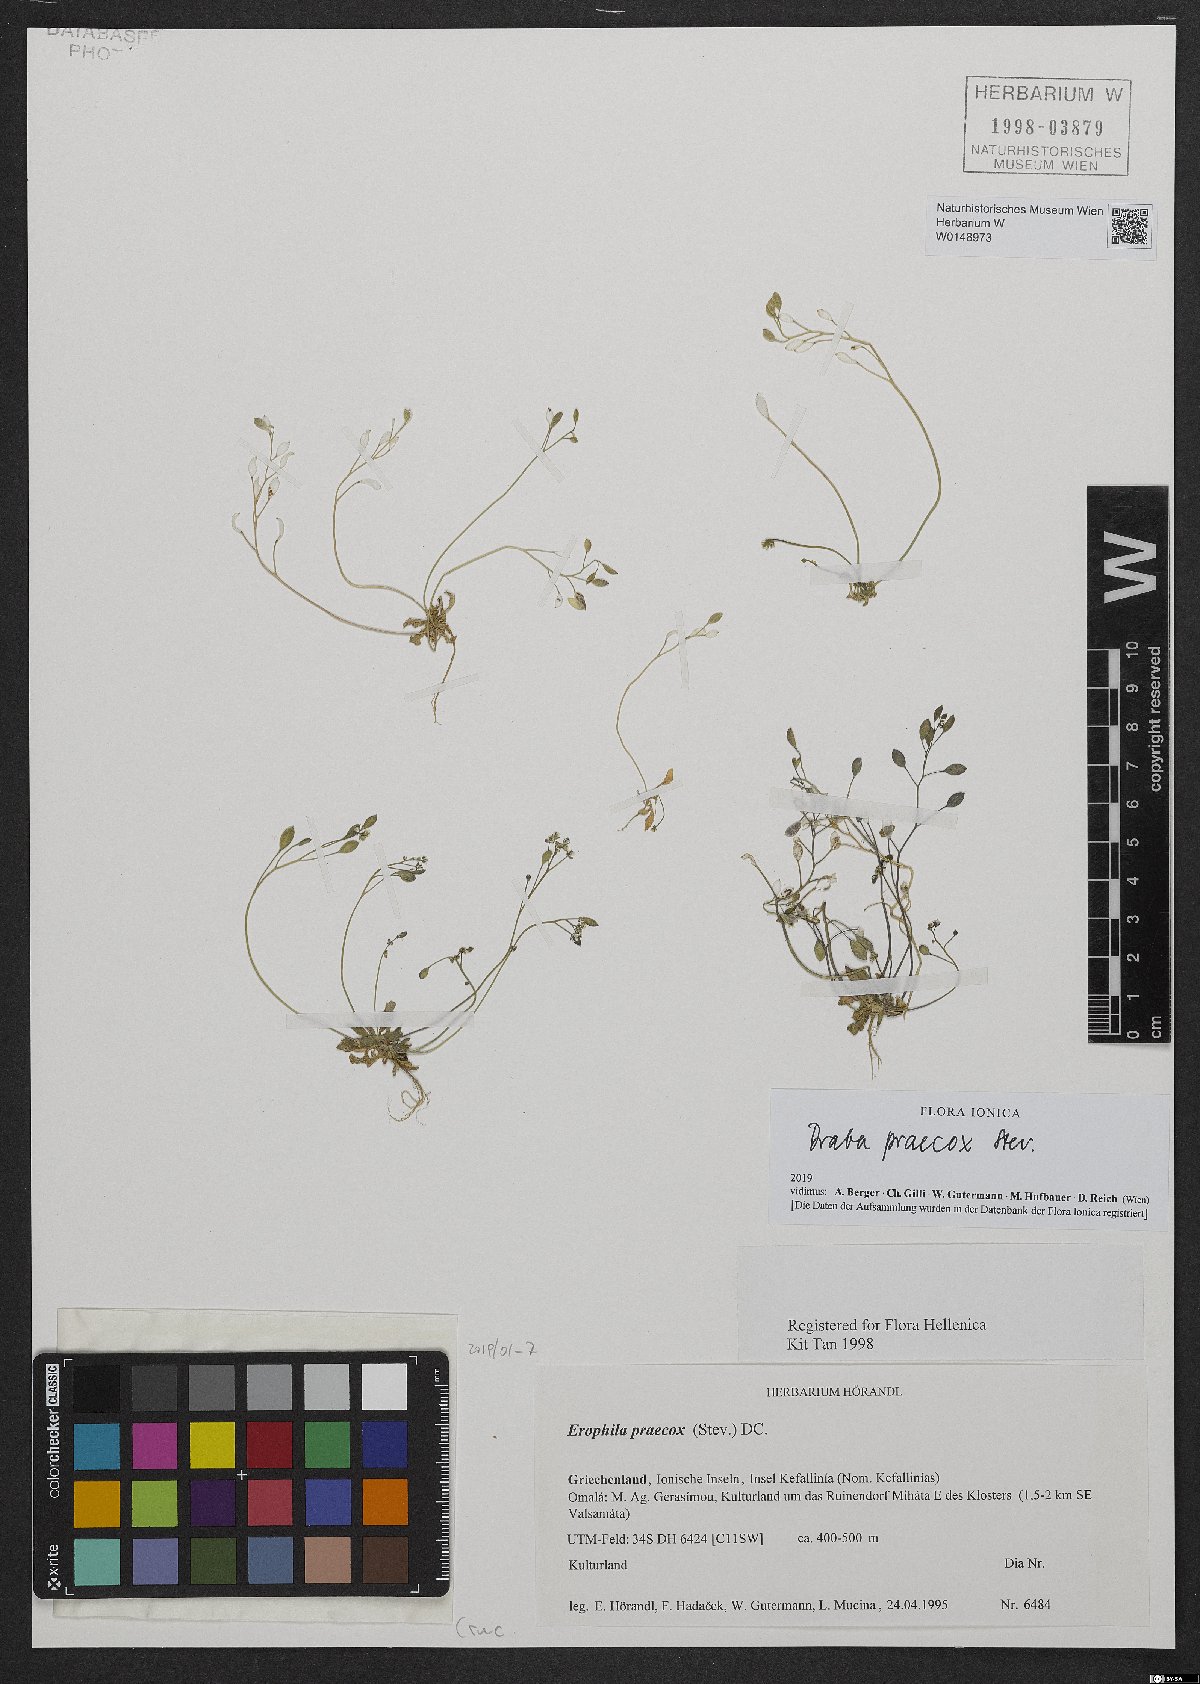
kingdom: Plantae
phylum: Tracheophyta
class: Magnoliopsida
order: Brassicales
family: Brassicaceae
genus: Draba
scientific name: Draba verna
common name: Spring draba
